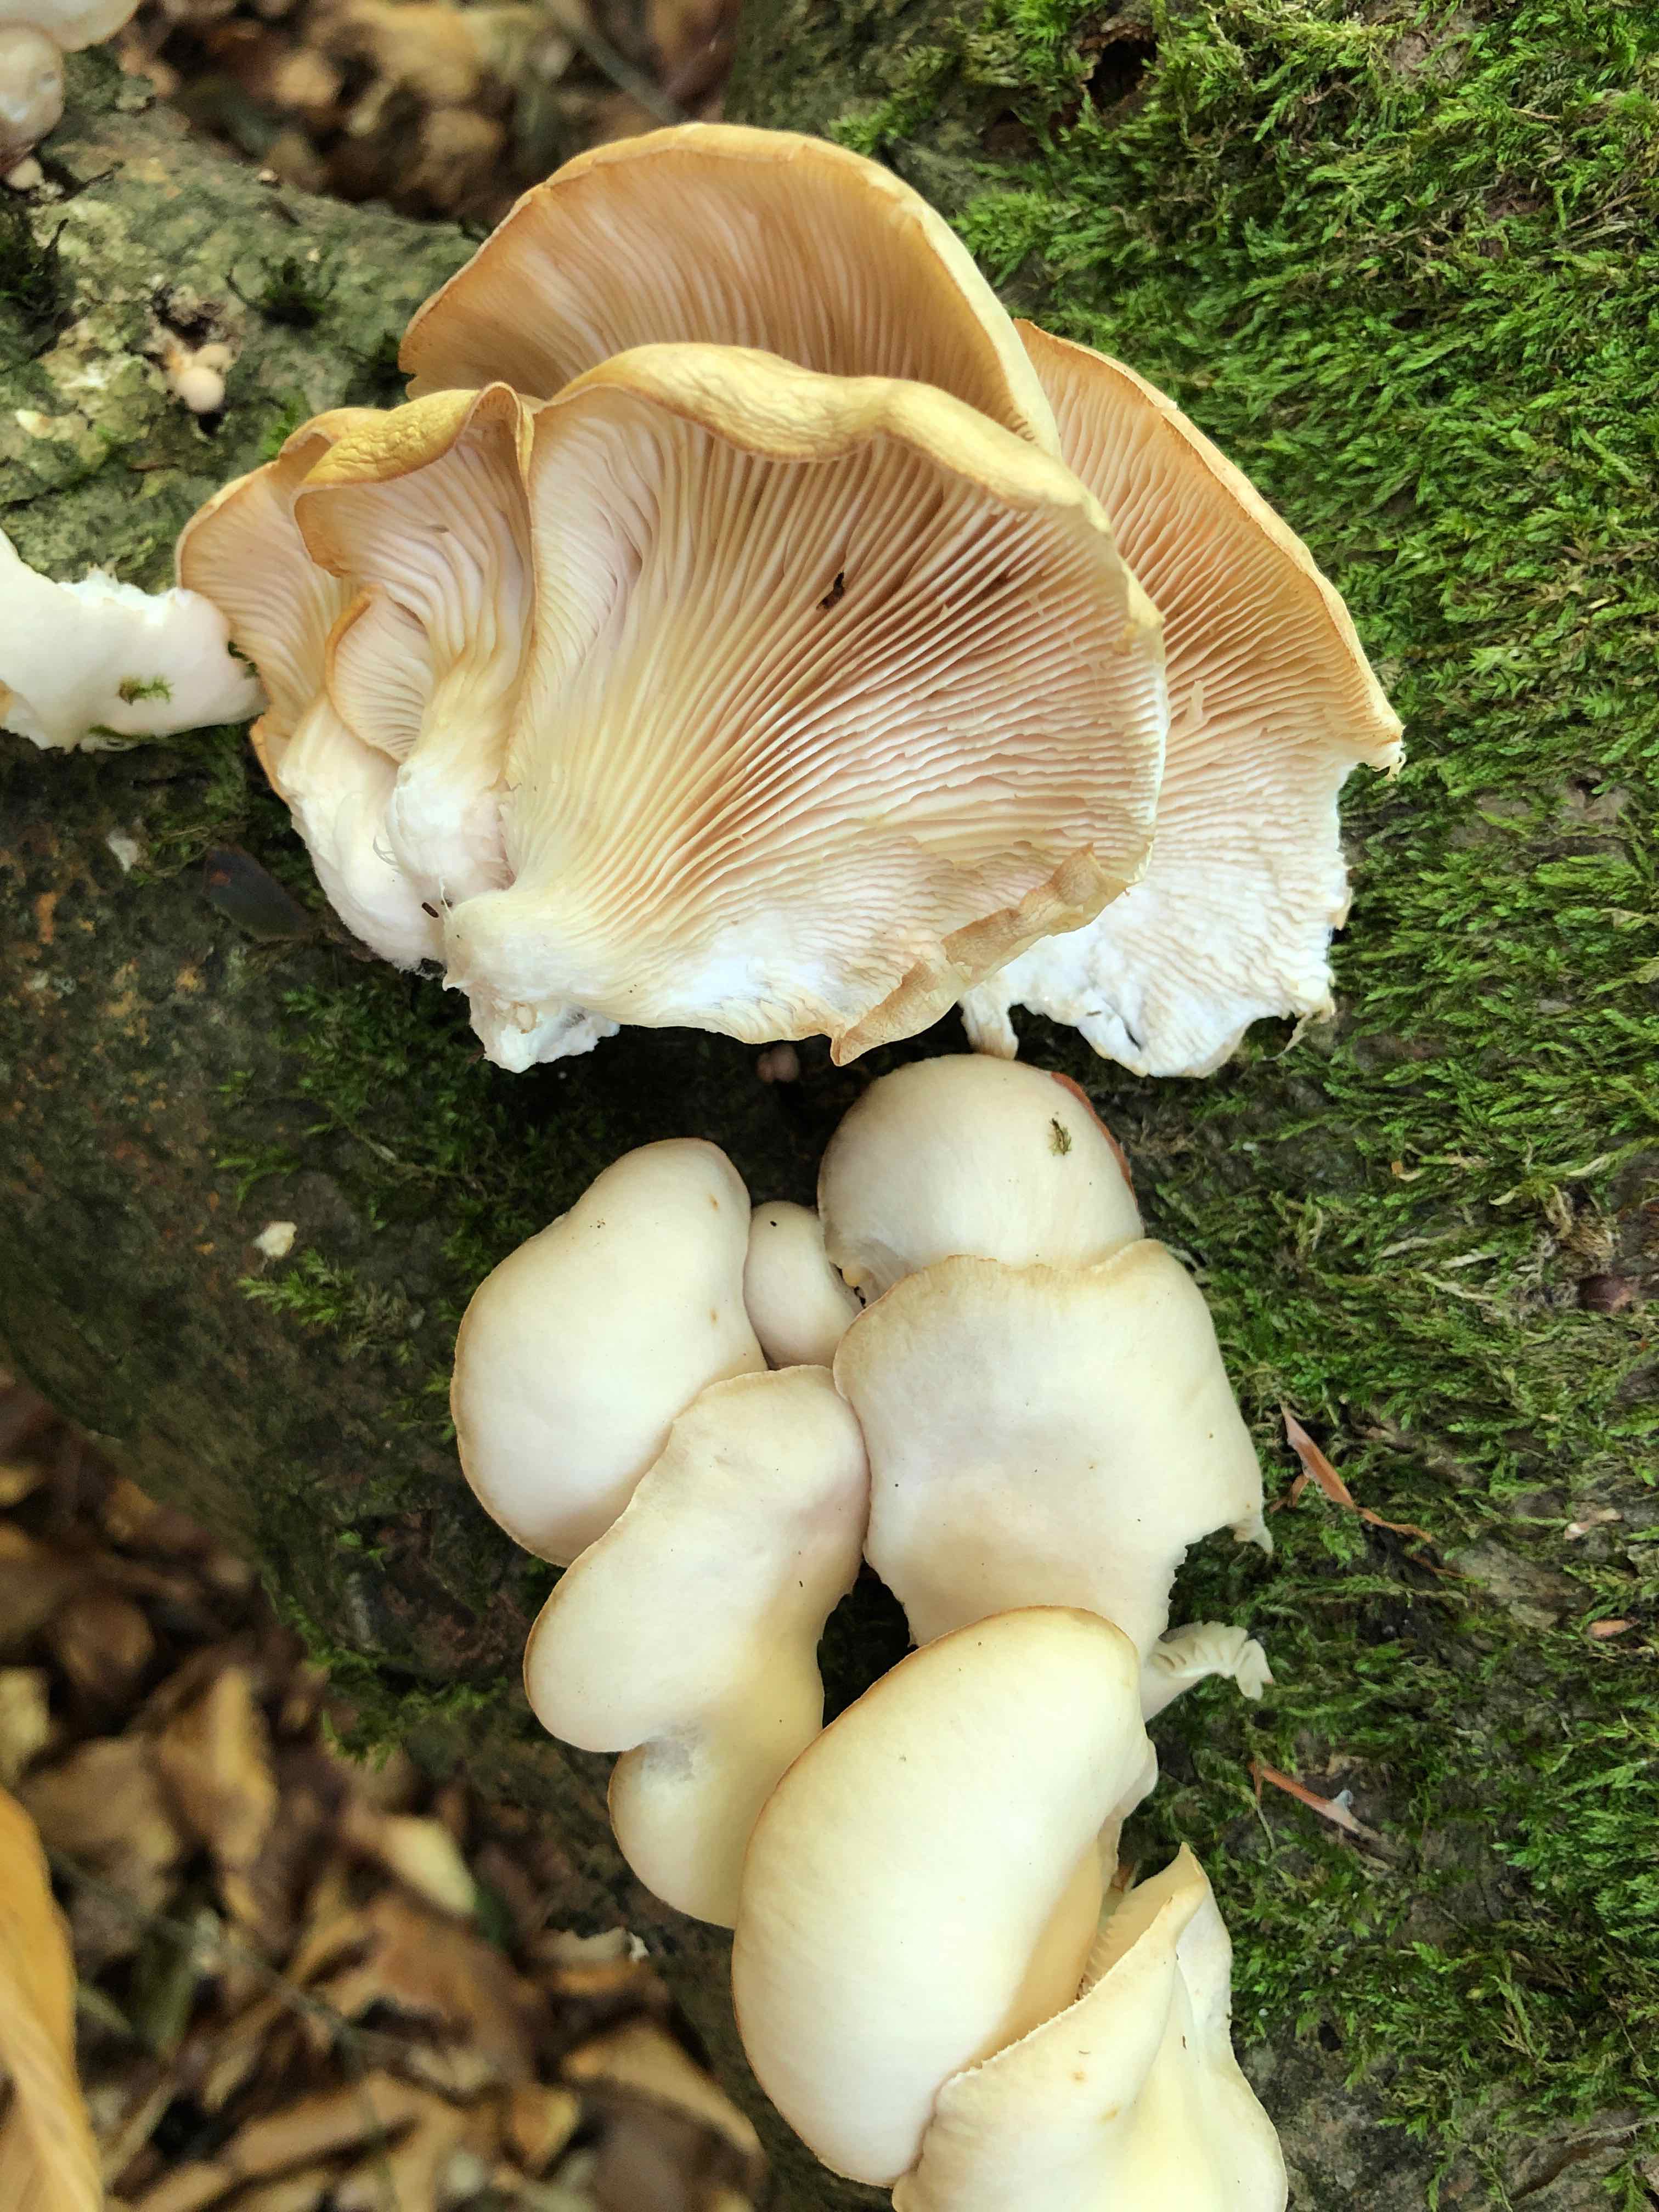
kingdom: Fungi
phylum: Basidiomycota
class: Agaricomycetes
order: Agaricales
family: Pleurotaceae
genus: Pleurotus
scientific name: Pleurotus pulmonarius
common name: sommer-østershat
